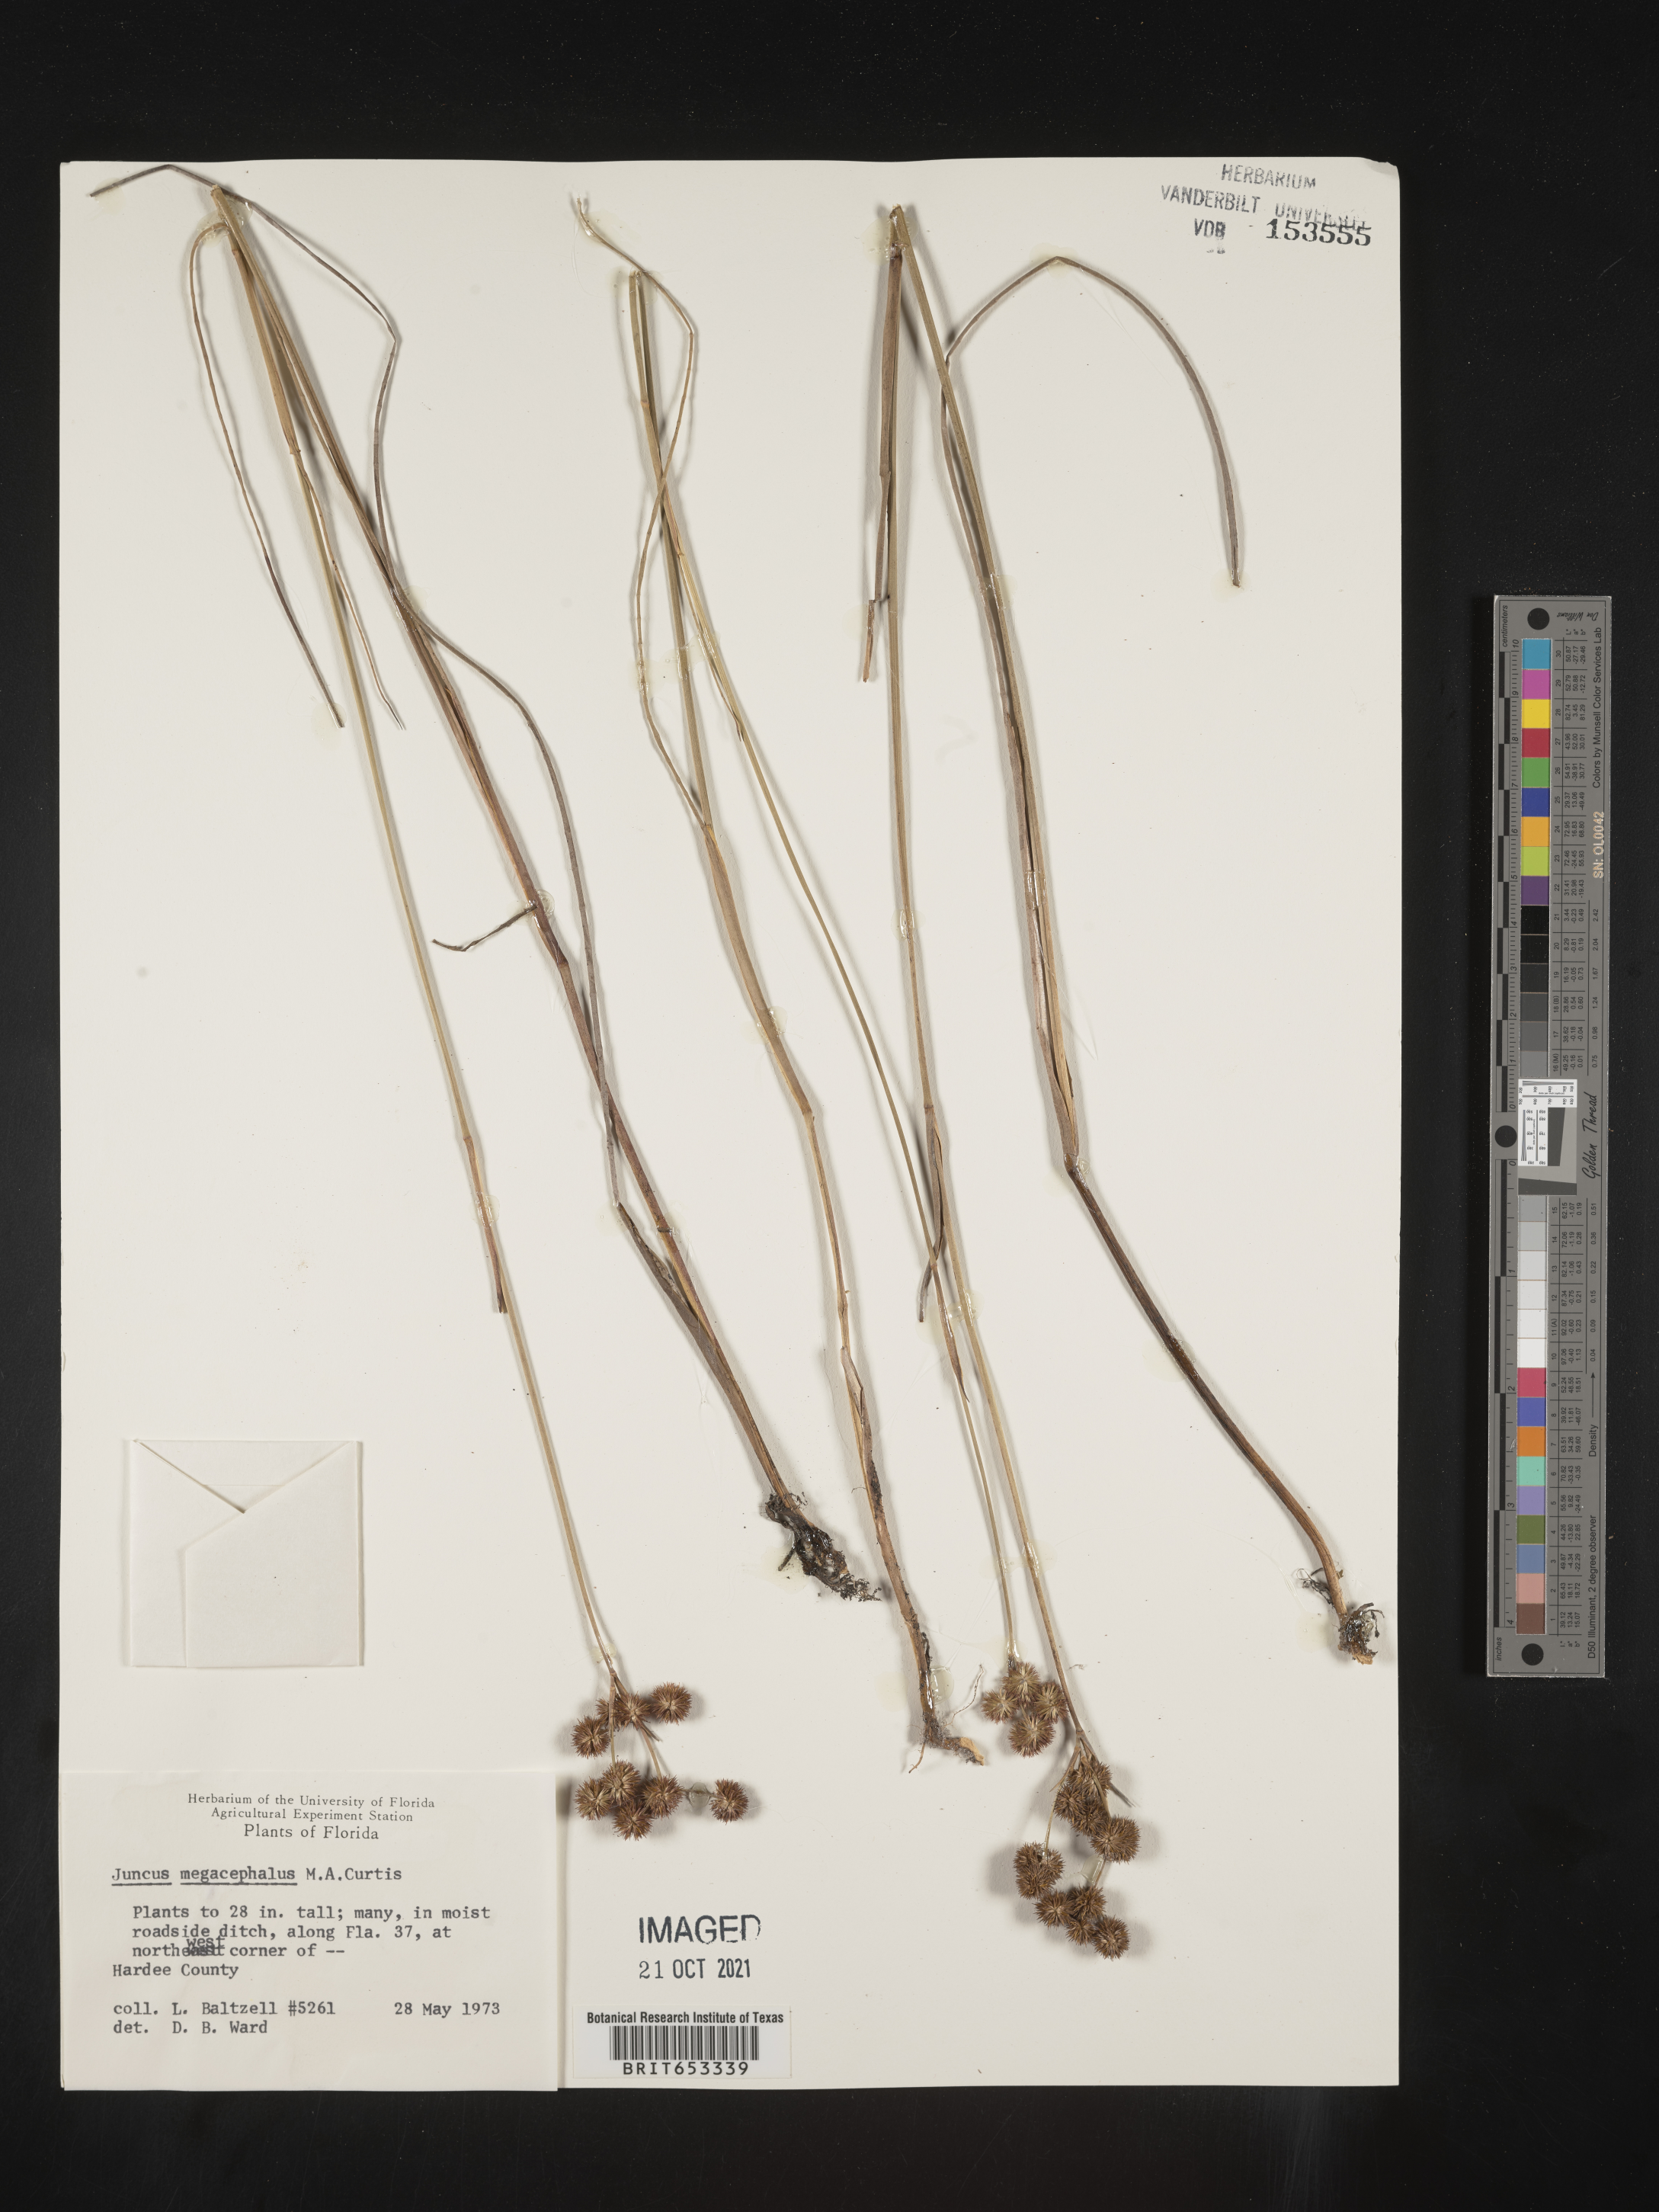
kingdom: Plantae
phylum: Tracheophyta
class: Liliopsida
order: Poales
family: Juncaceae
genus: Juncus
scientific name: Juncus megacephalus
